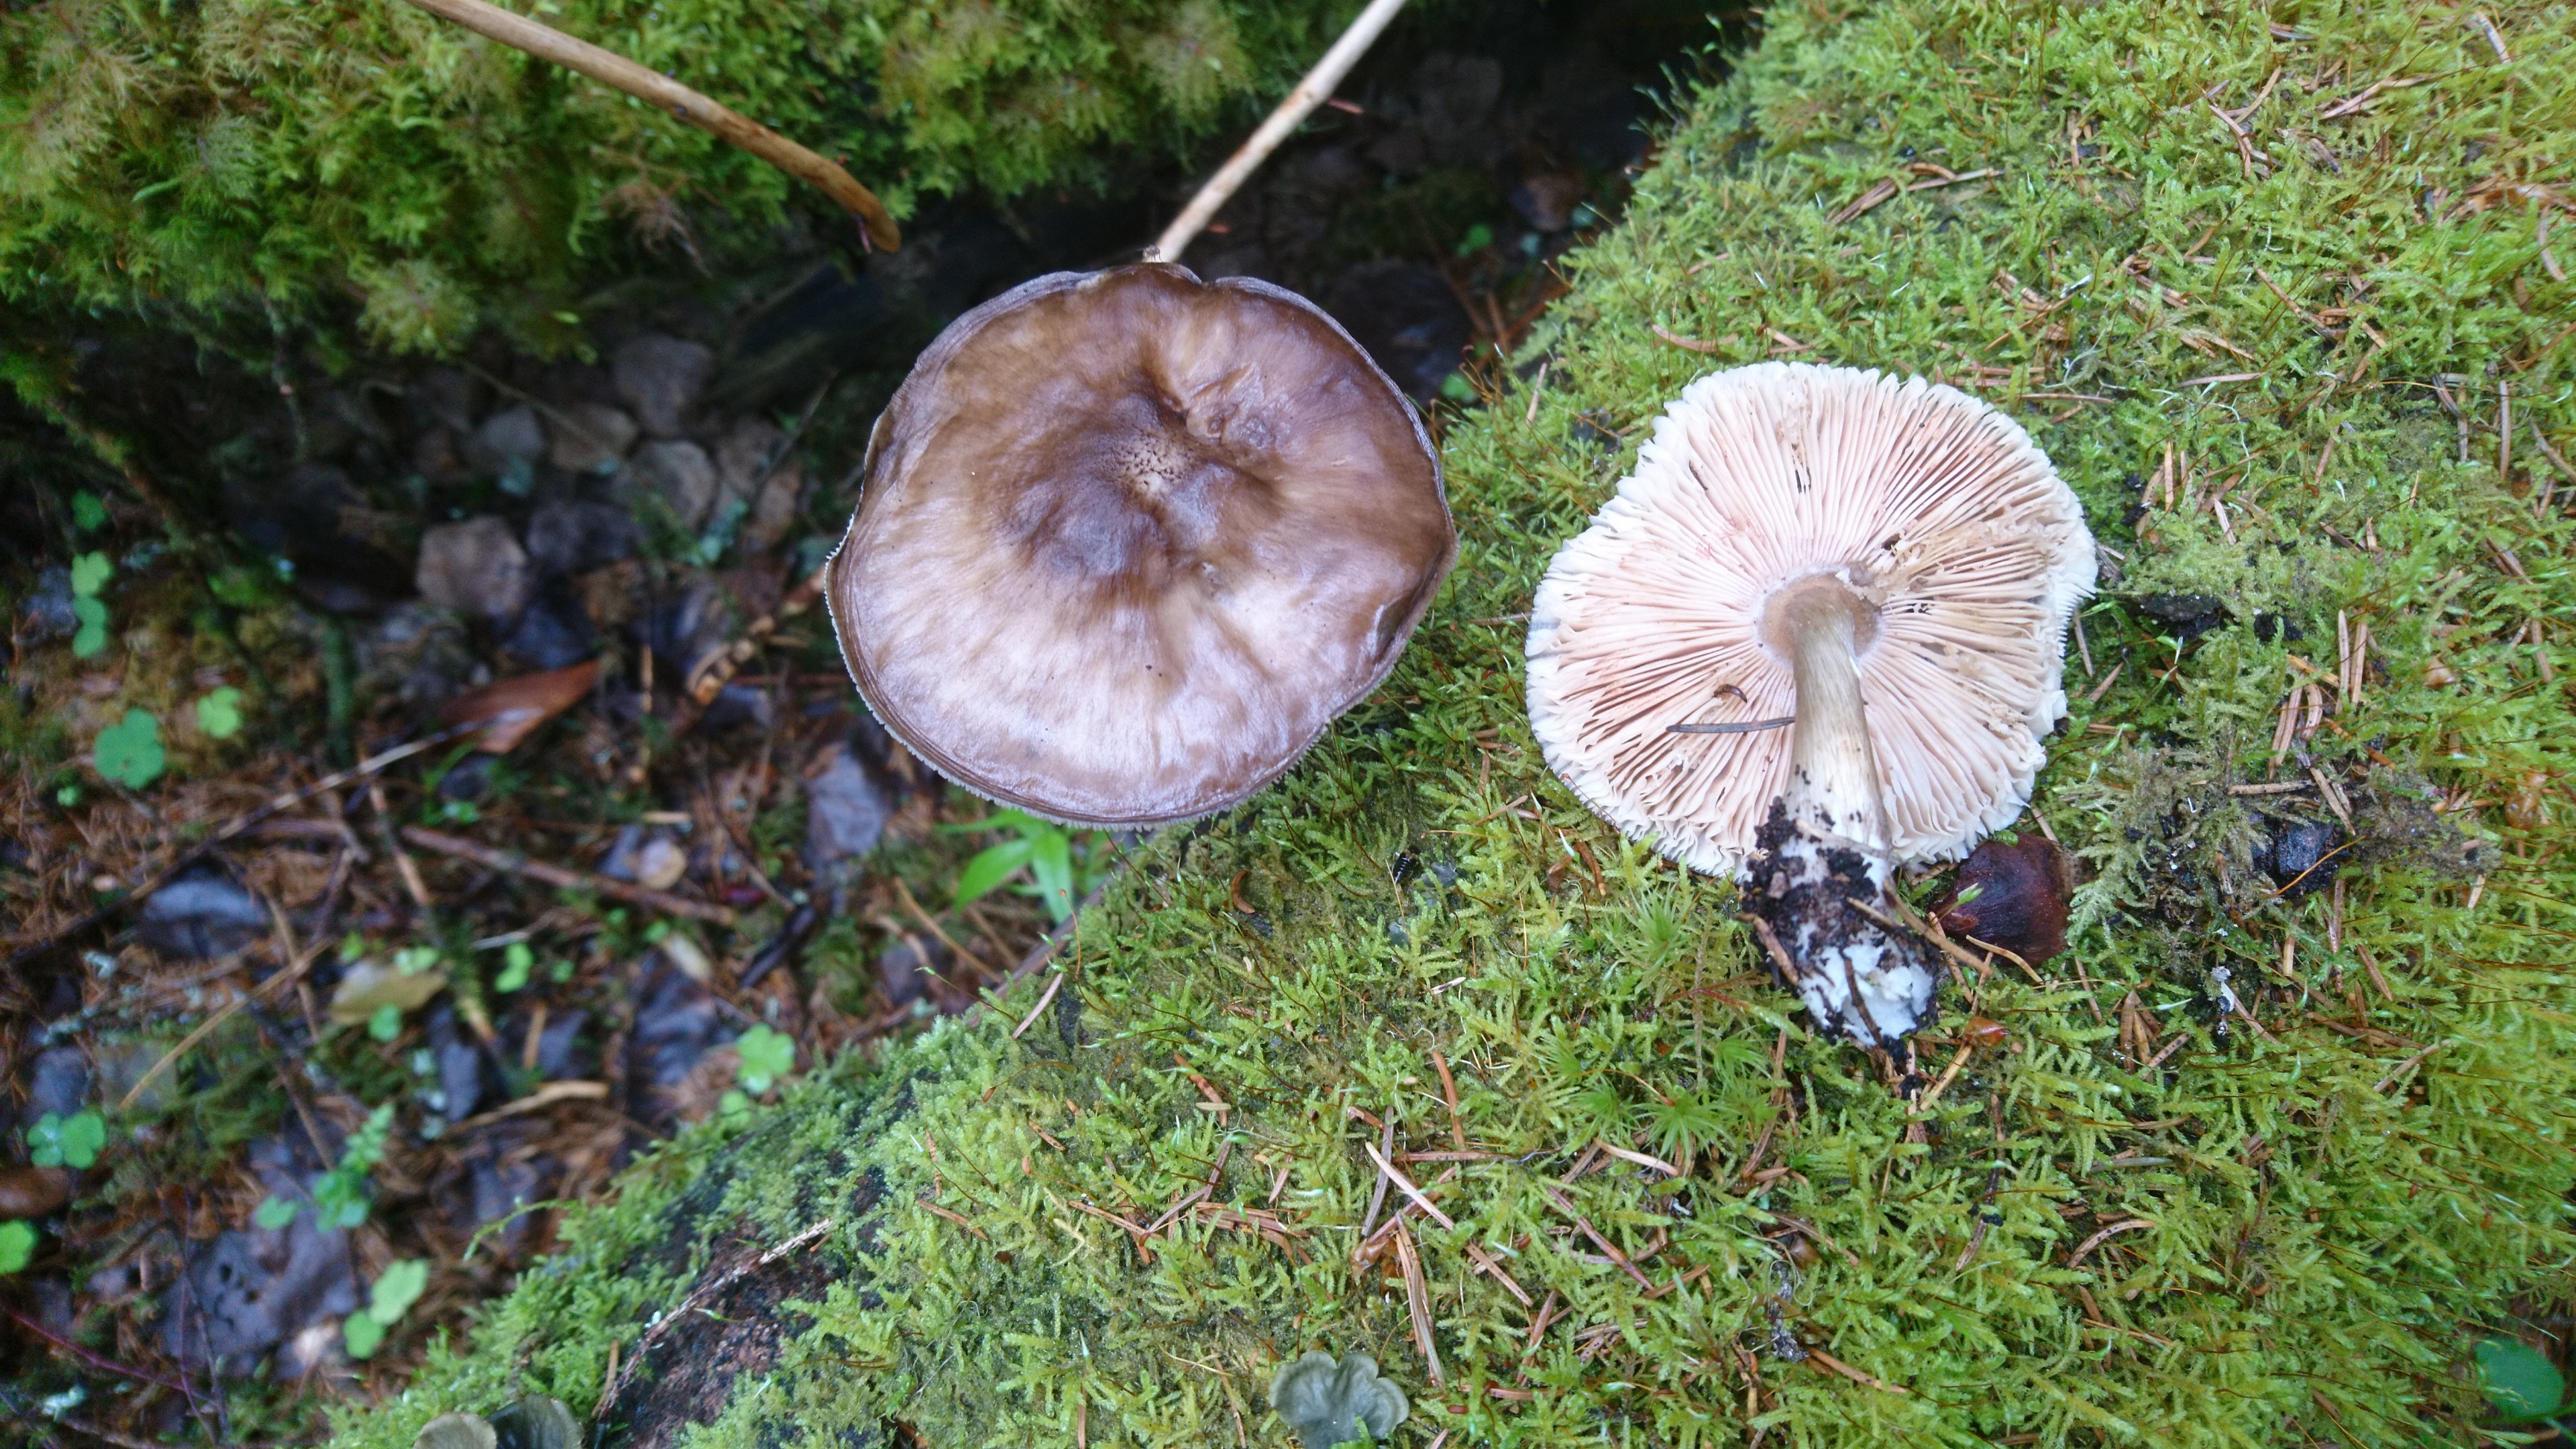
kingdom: Fungi
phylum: Basidiomycota
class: Agaricomycetes
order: Agaricales
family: Pluteaceae
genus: Pluteus
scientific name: Pluteus cervinus
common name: Deer shield
